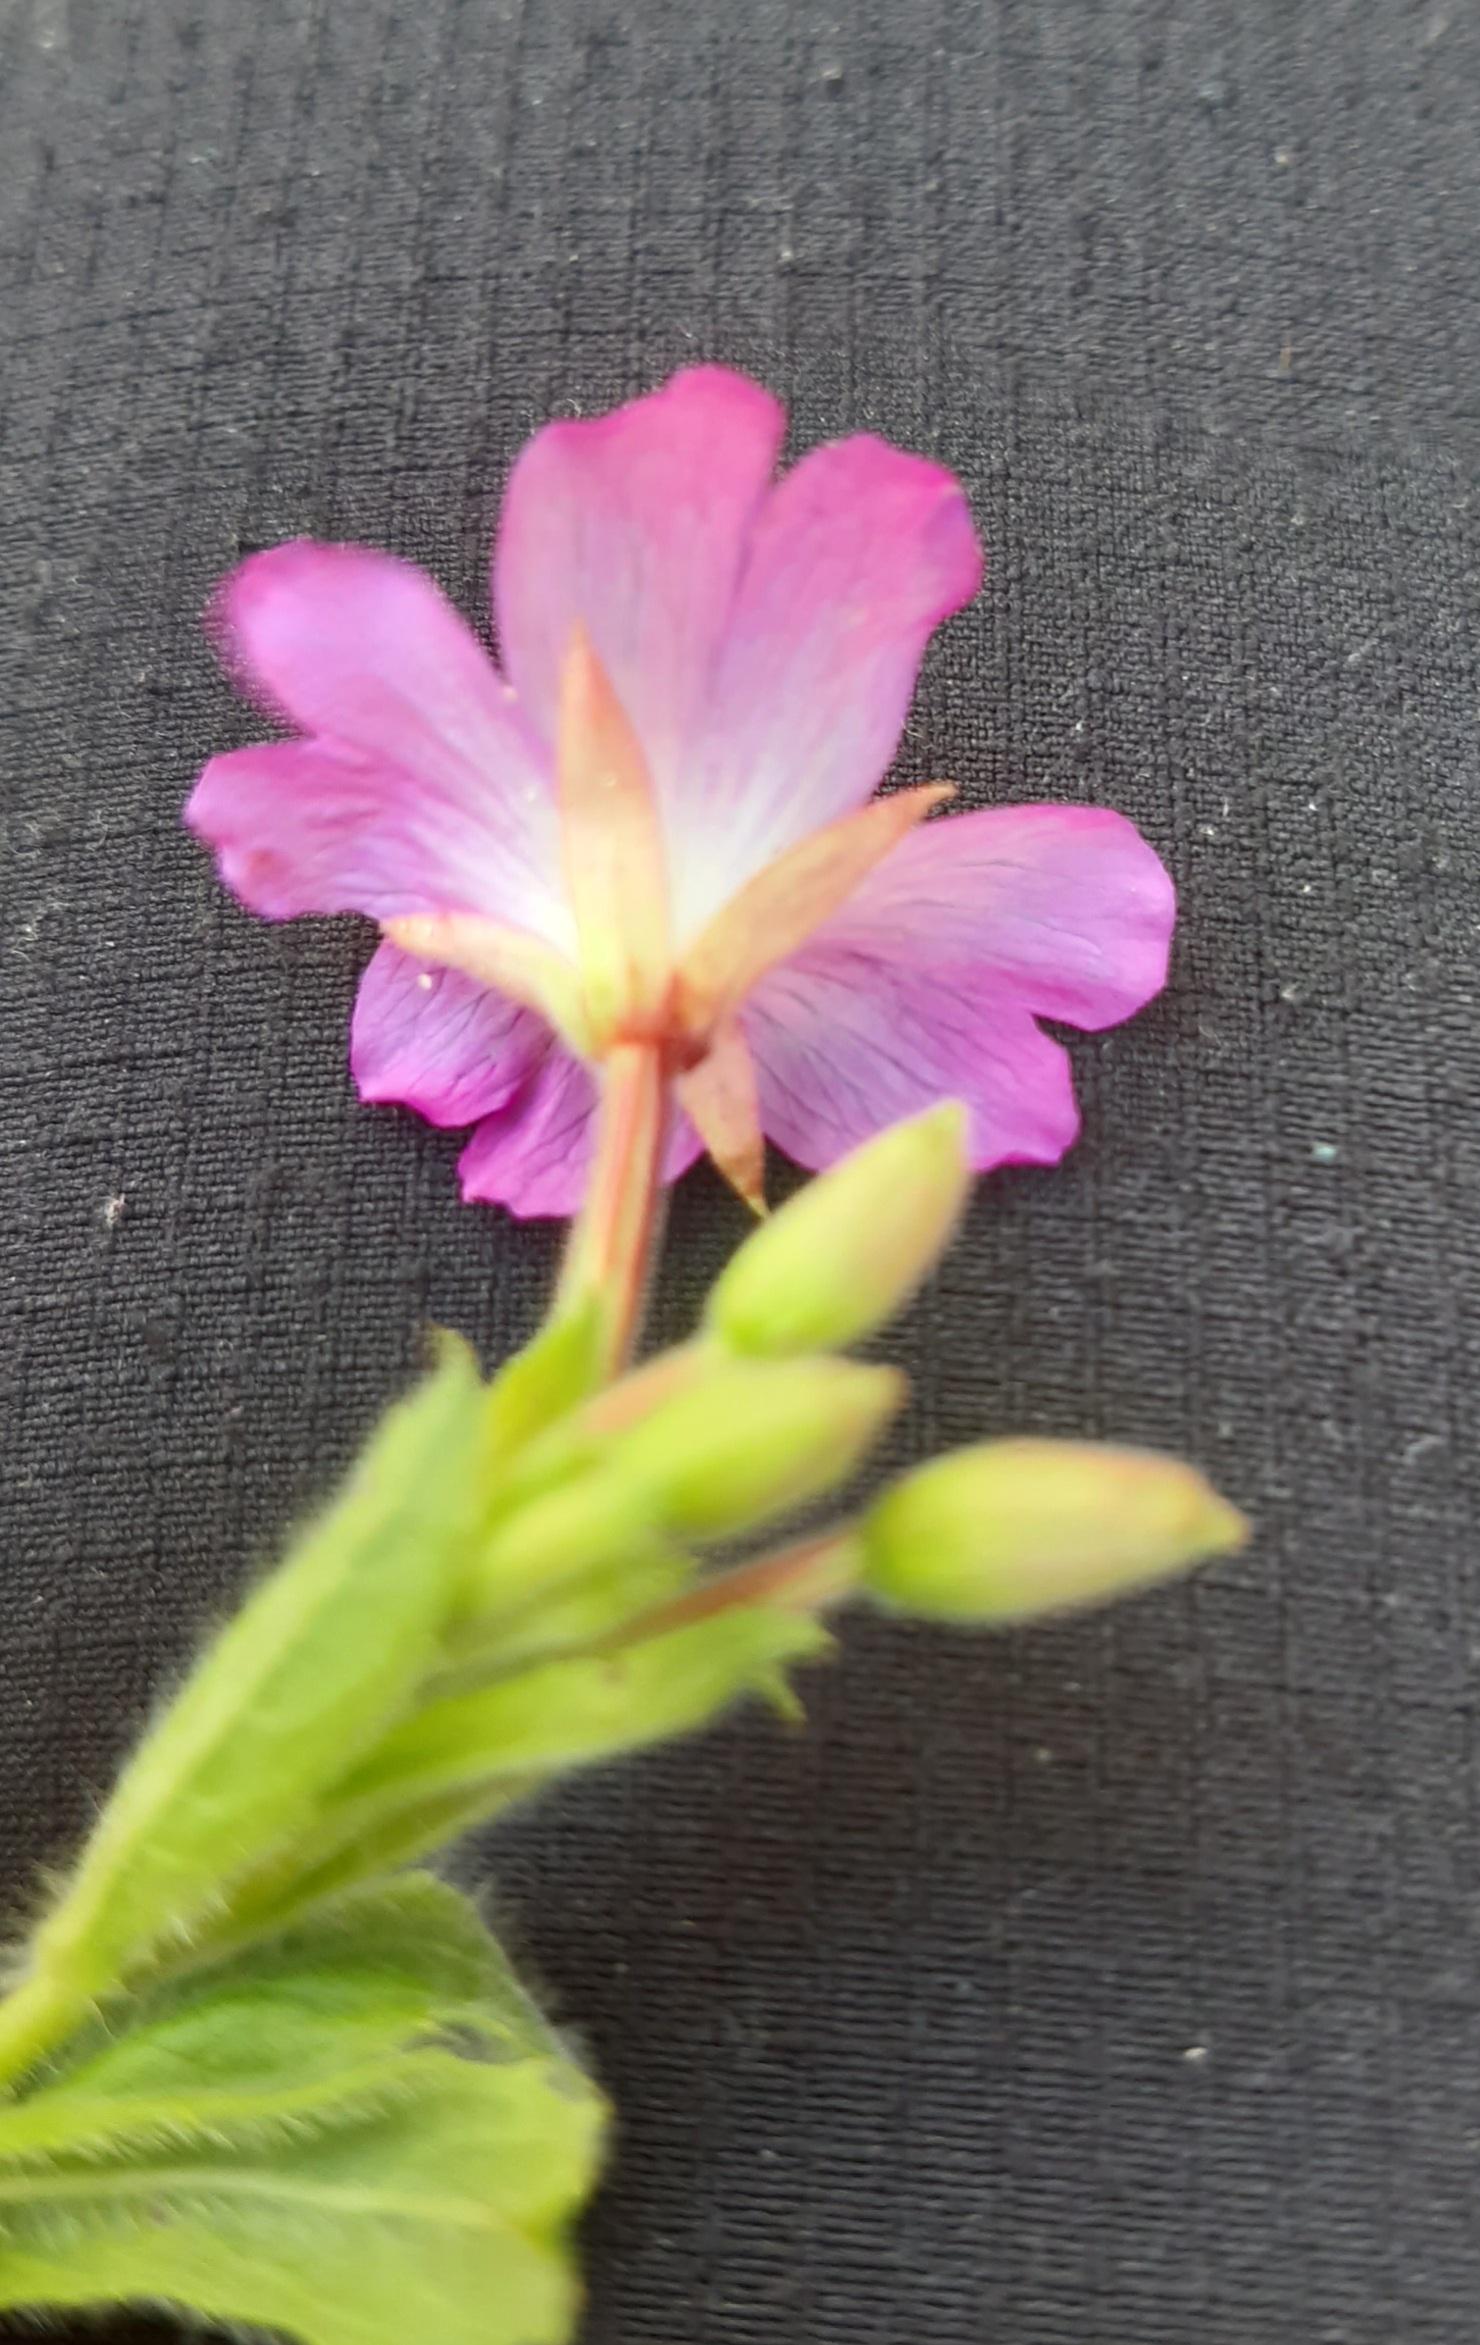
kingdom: Plantae
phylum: Tracheophyta
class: Magnoliopsida
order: Myrtales
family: Onagraceae
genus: Epilobium
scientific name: Epilobium hirsutum
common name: Lådden dueurt
